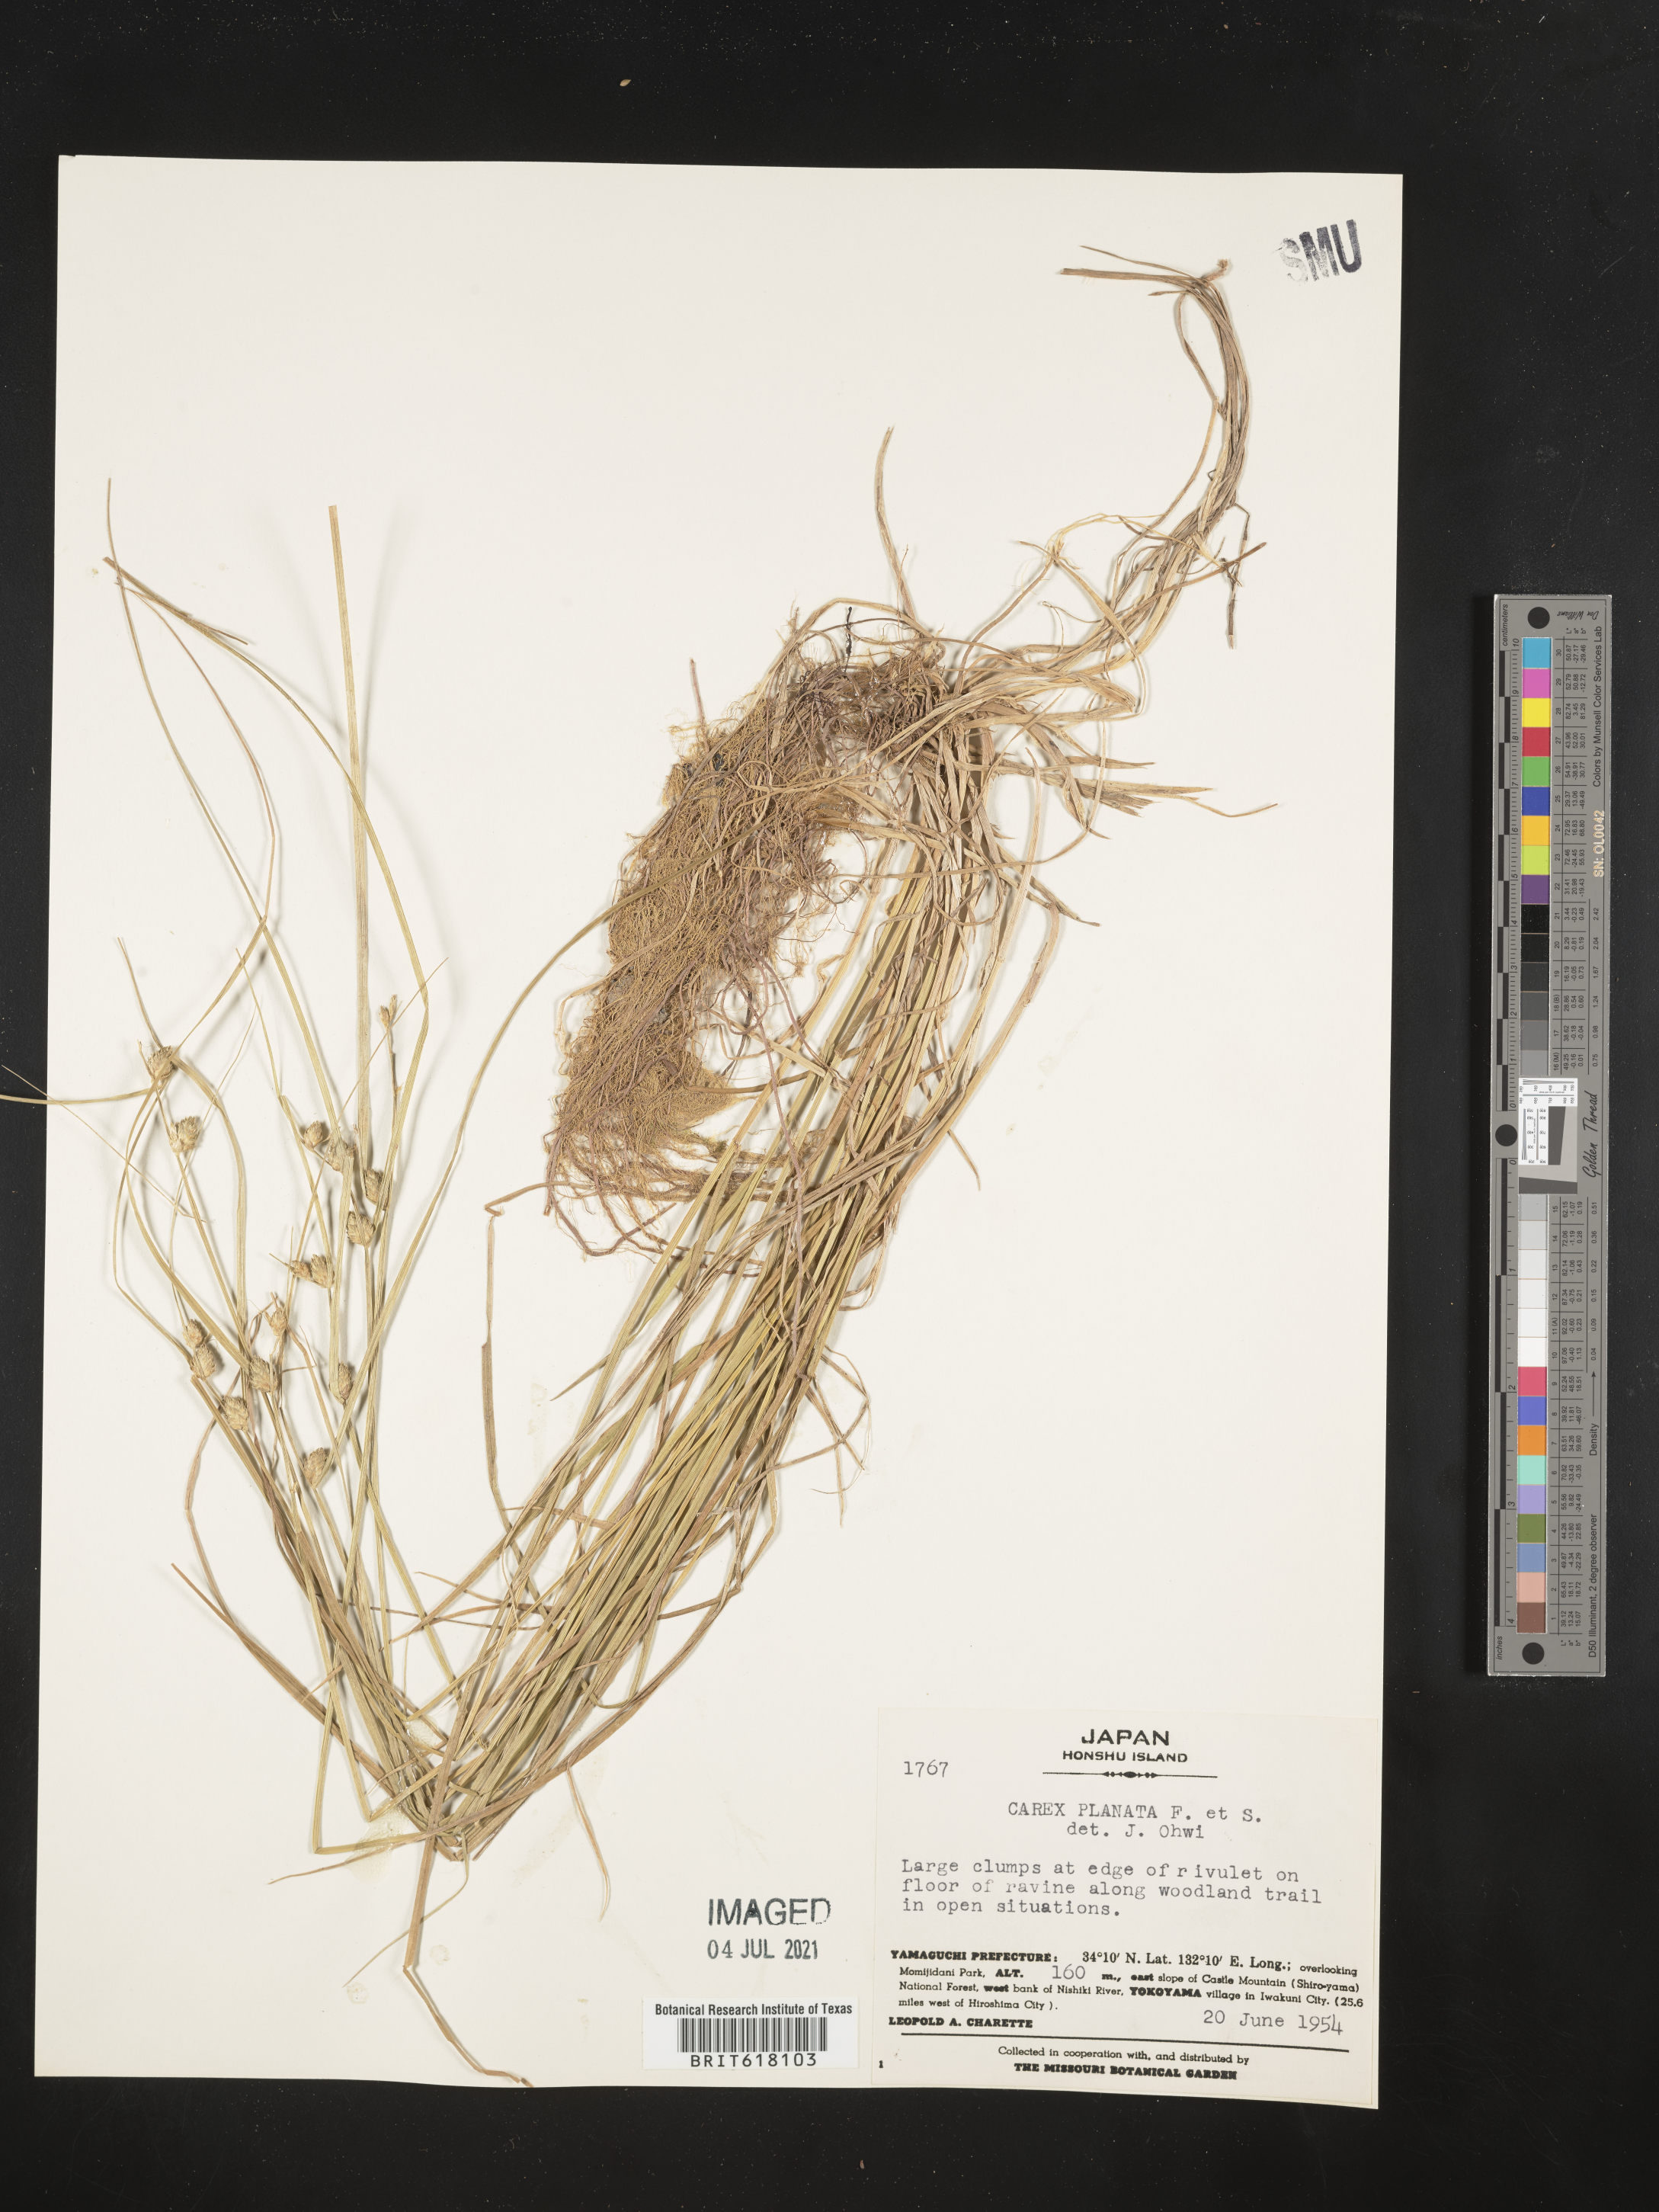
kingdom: Plantae
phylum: Tracheophyta
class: Liliopsida
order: Poales
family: Cyperaceae
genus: Carex
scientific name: Carex planata
